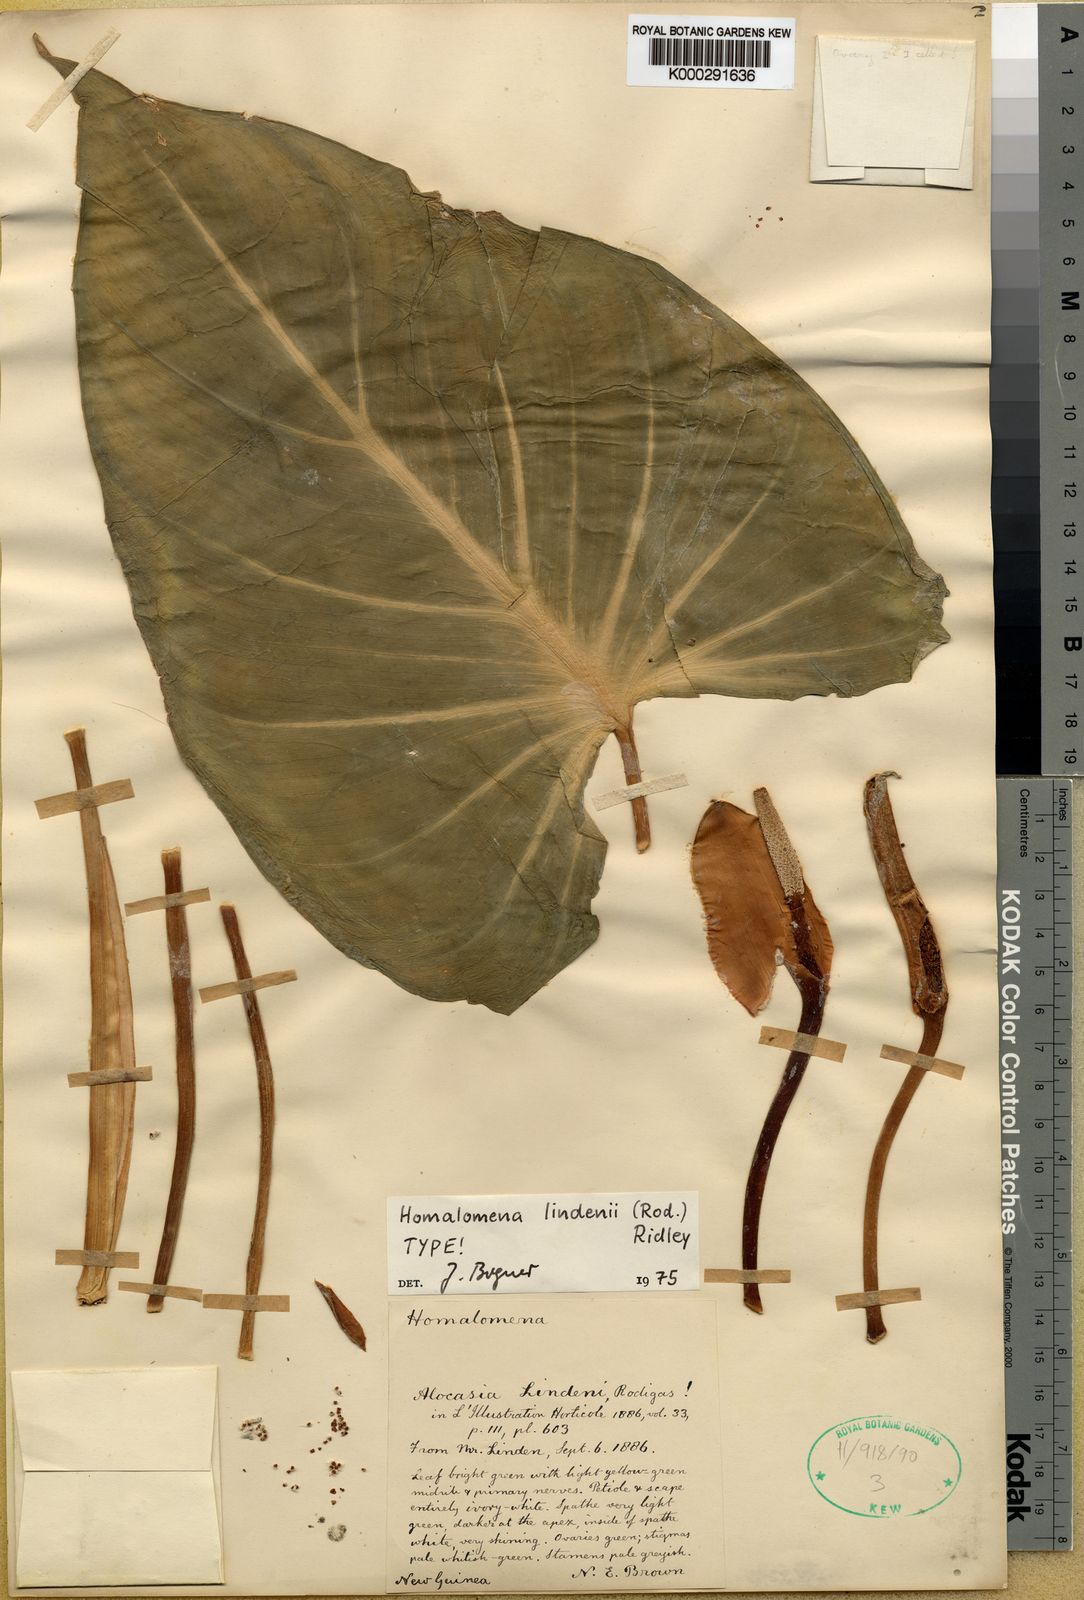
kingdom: Plantae
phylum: Tracheophyta
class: Liliopsida
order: Alismatales
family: Araceae
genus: Homalomena
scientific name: Homalomena lindenii
